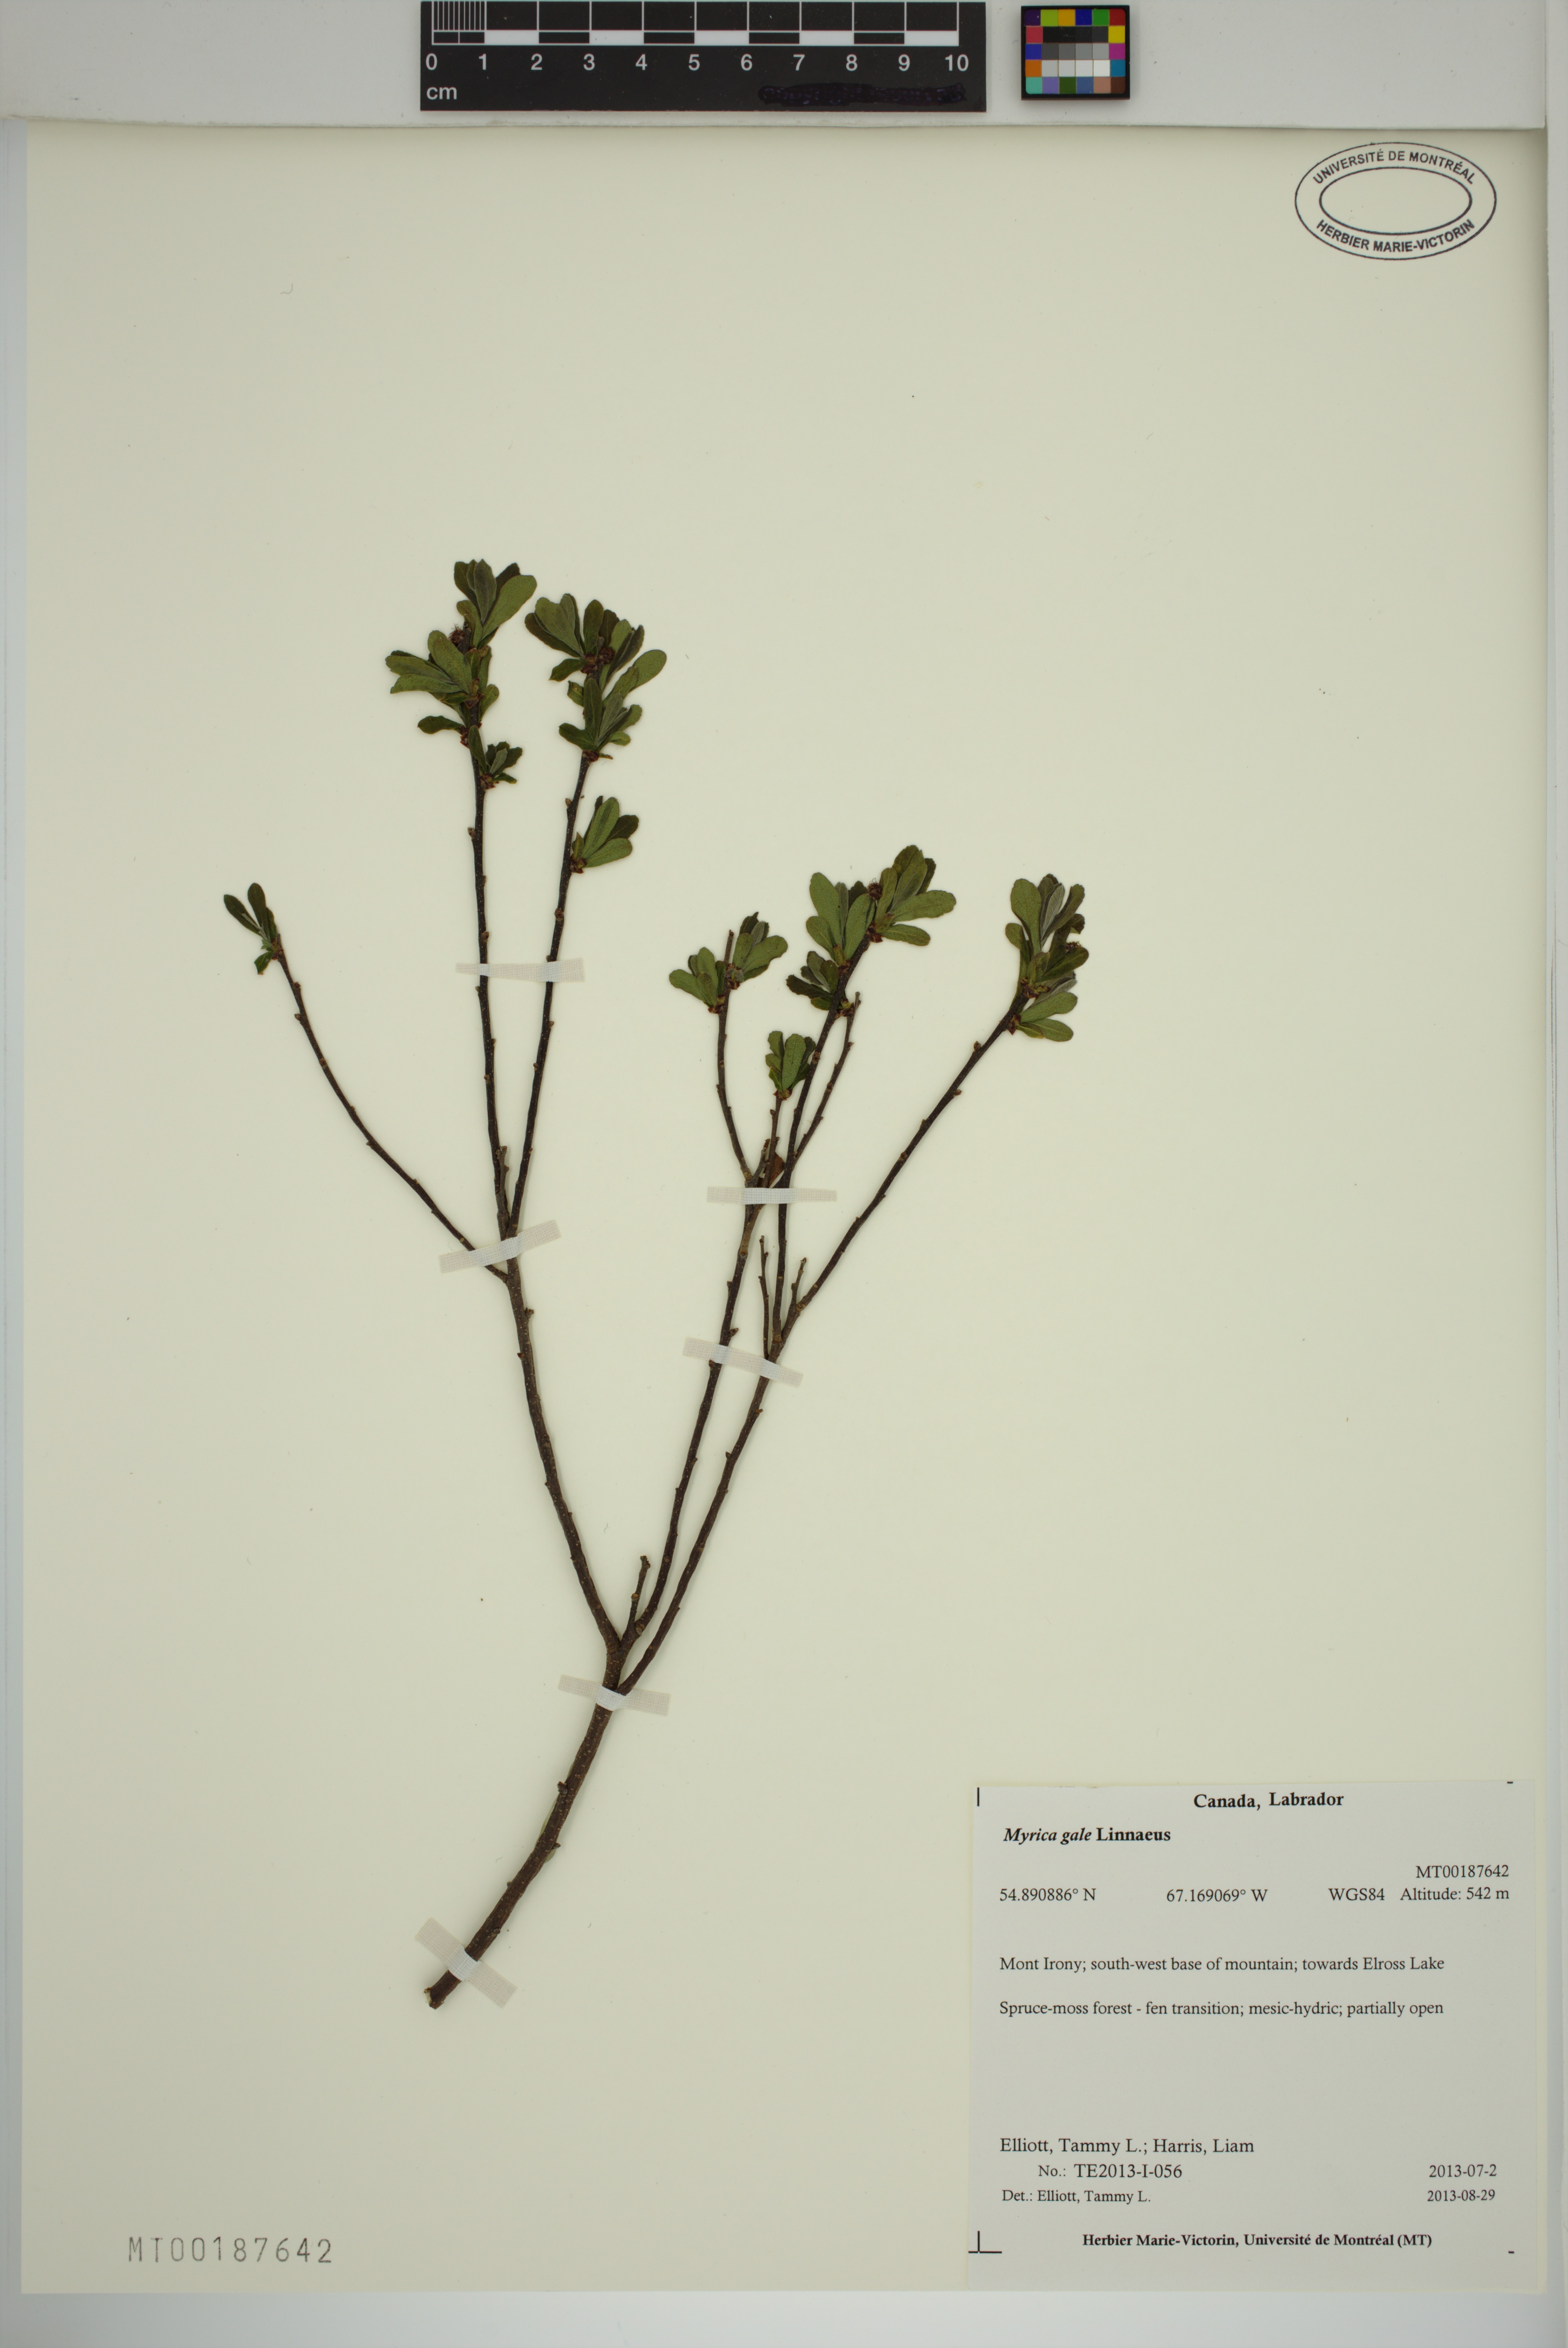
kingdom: Plantae
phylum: Tracheophyta
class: Magnoliopsida
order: Fagales
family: Myricaceae
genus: Myrica
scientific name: Myrica gale
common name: Sweet gale
